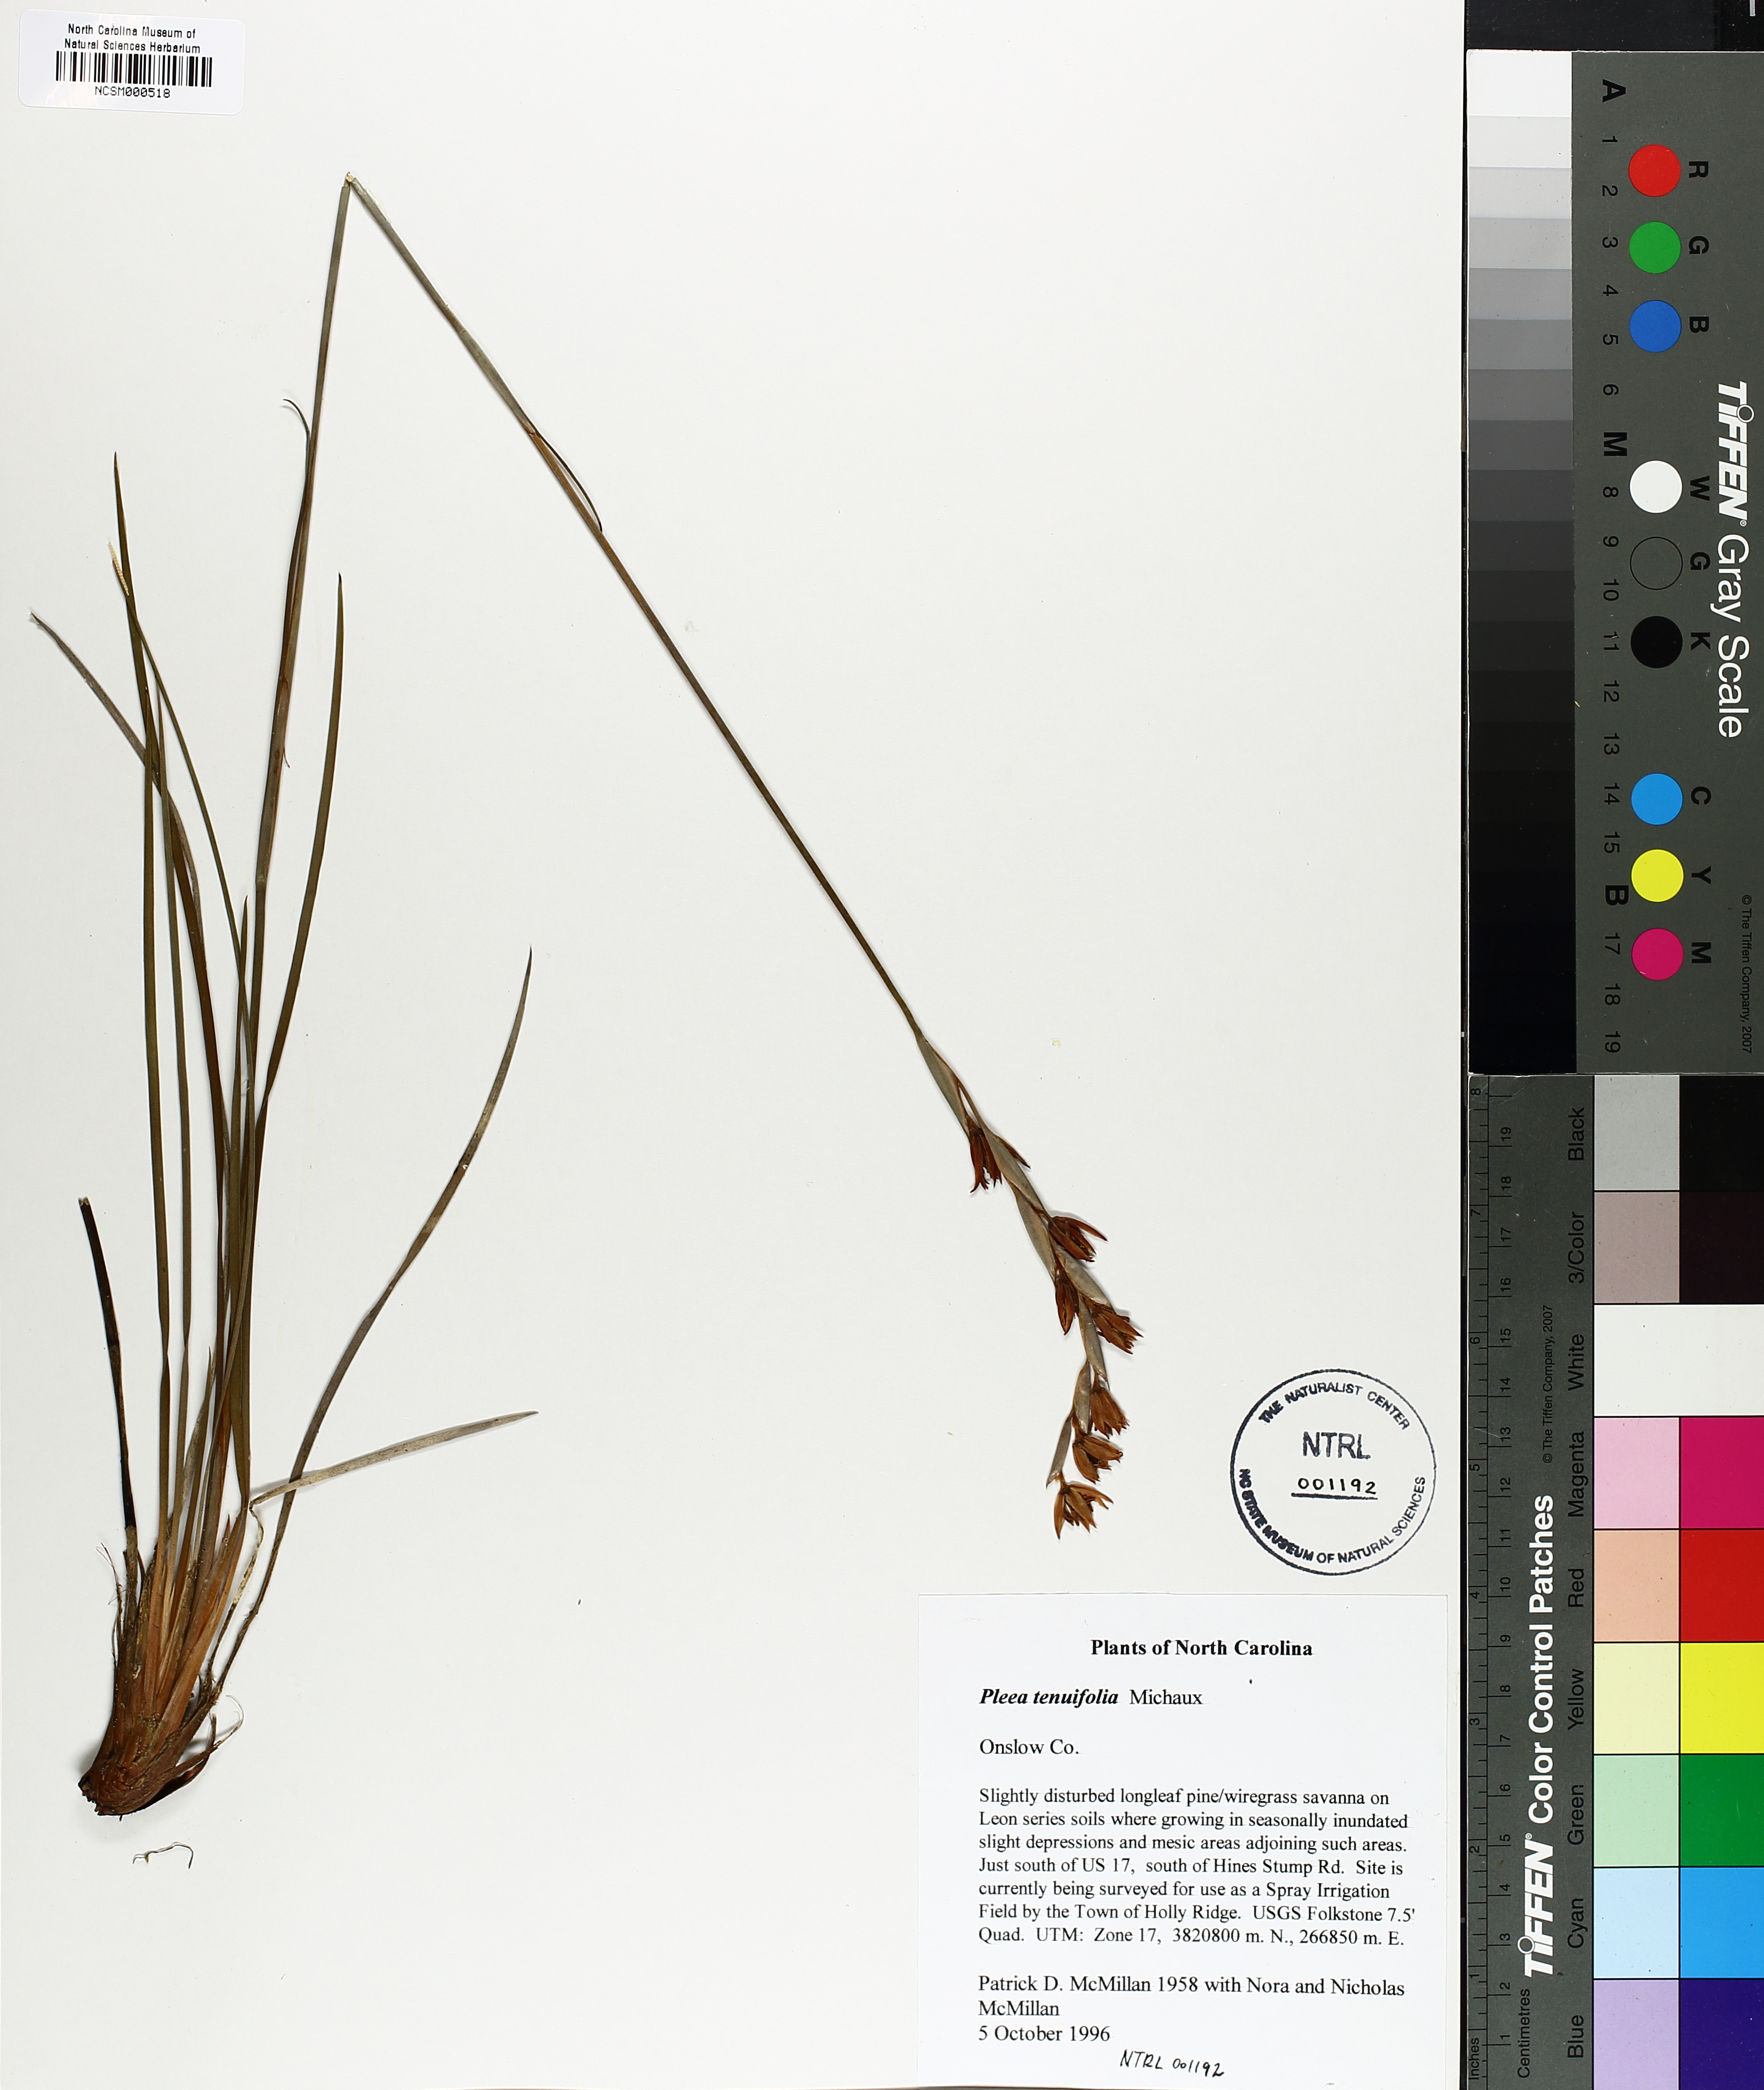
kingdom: Plantae
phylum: Tracheophyta
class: Liliopsida
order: Alismatales
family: Tofieldiaceae
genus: Pleea
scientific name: Pleea tenuifolia
